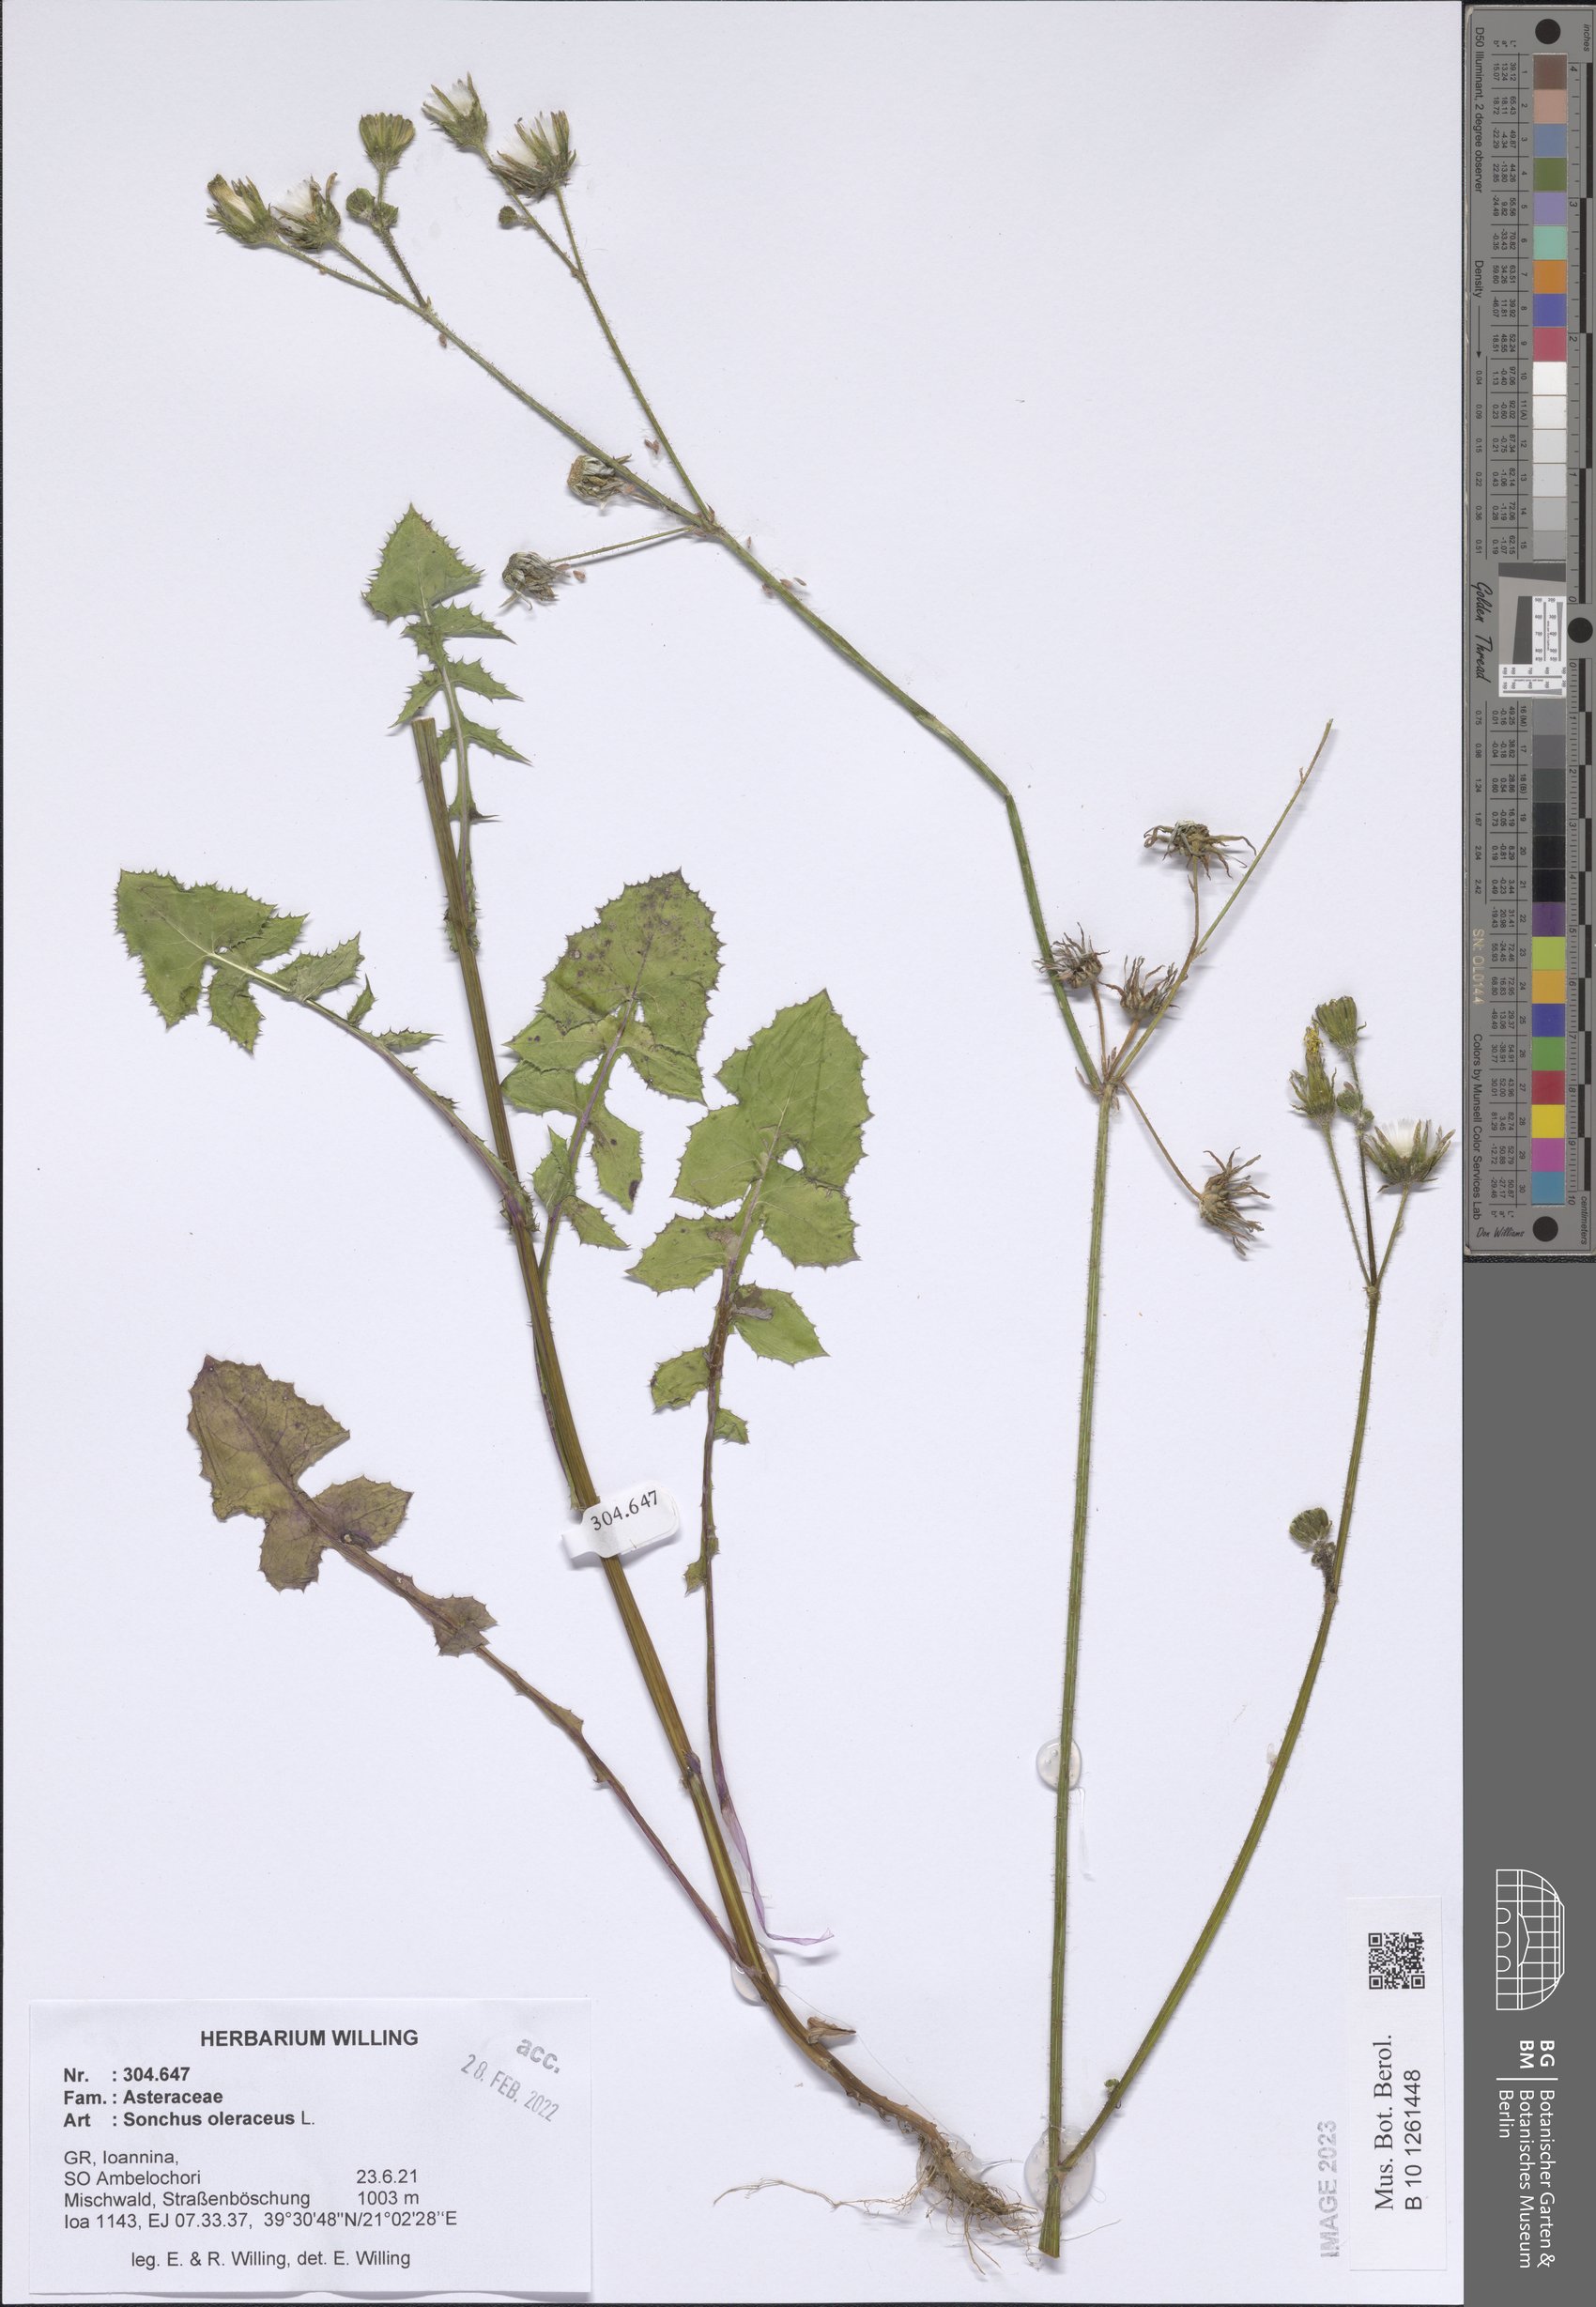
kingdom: Plantae
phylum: Tracheophyta
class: Magnoliopsida
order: Asterales
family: Asteraceae
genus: Sonchus
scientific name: Sonchus oleraceus
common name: Common sowthistle
